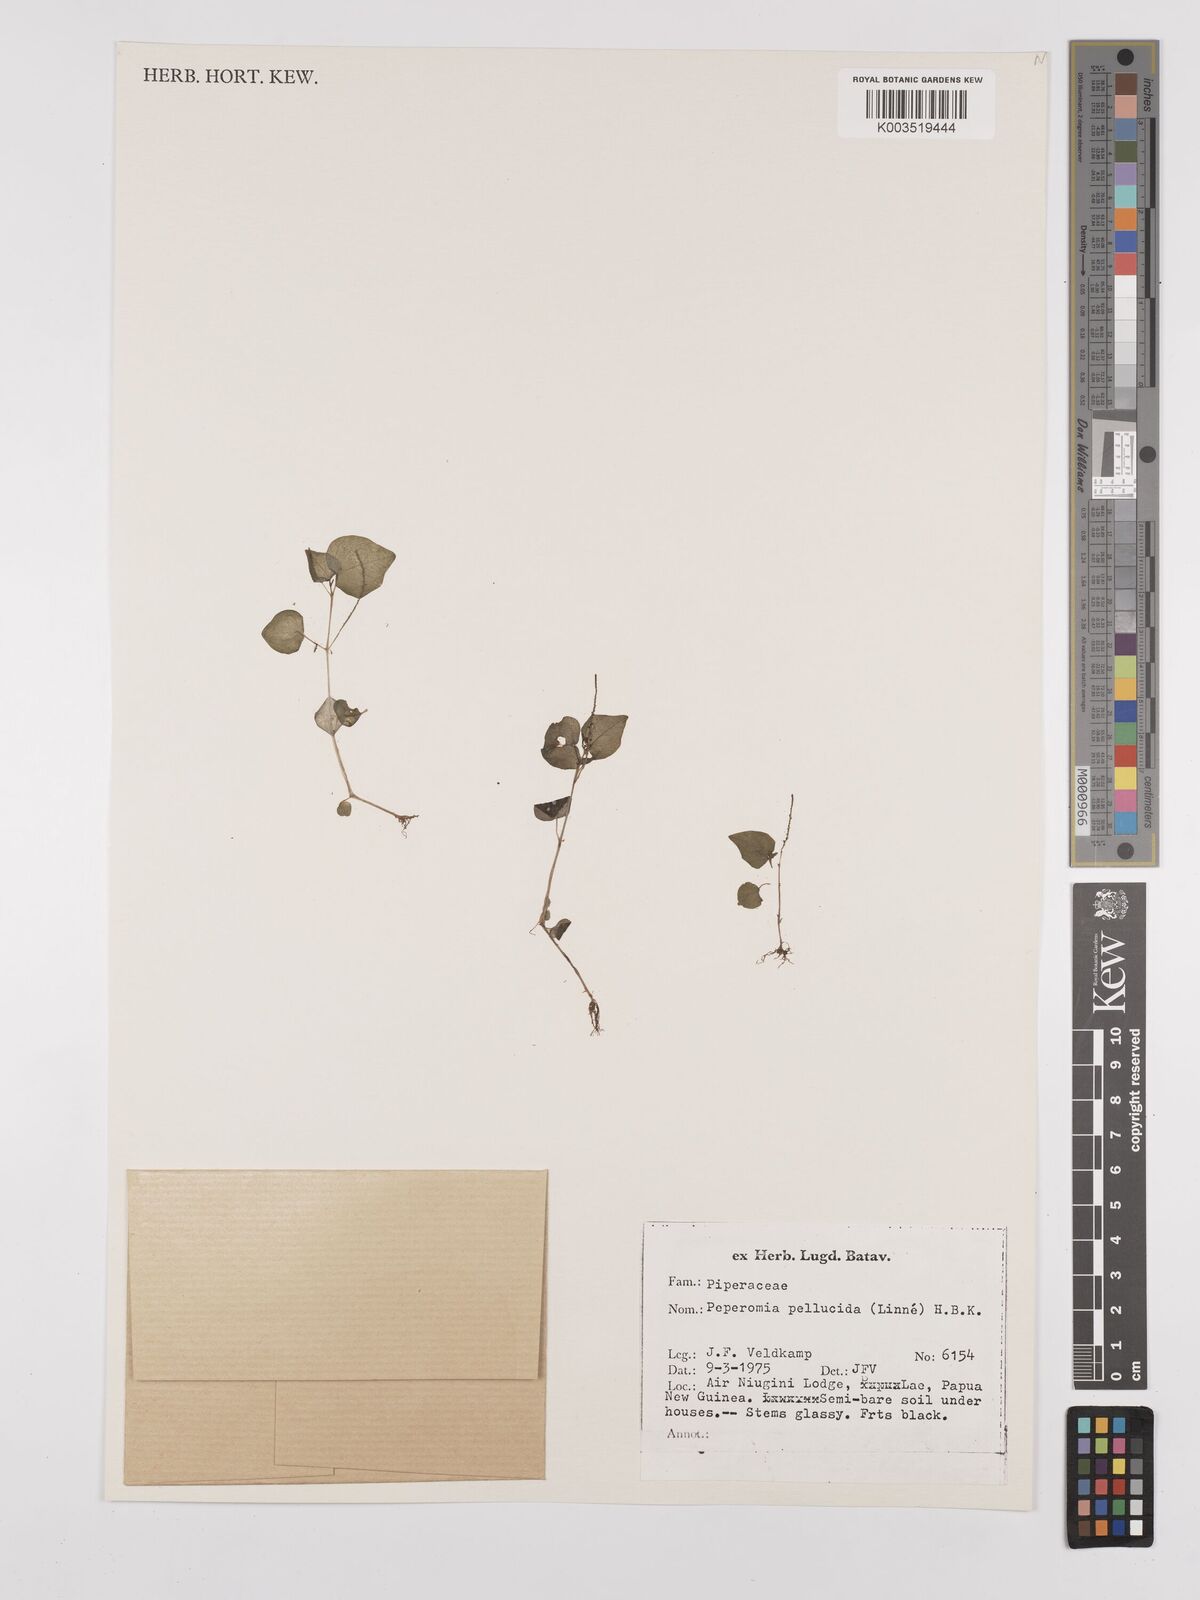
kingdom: Plantae
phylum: Tracheophyta
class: Magnoliopsida
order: Piperales
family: Piperaceae
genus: Peperomia
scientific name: Peperomia pellucida
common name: Man to man
